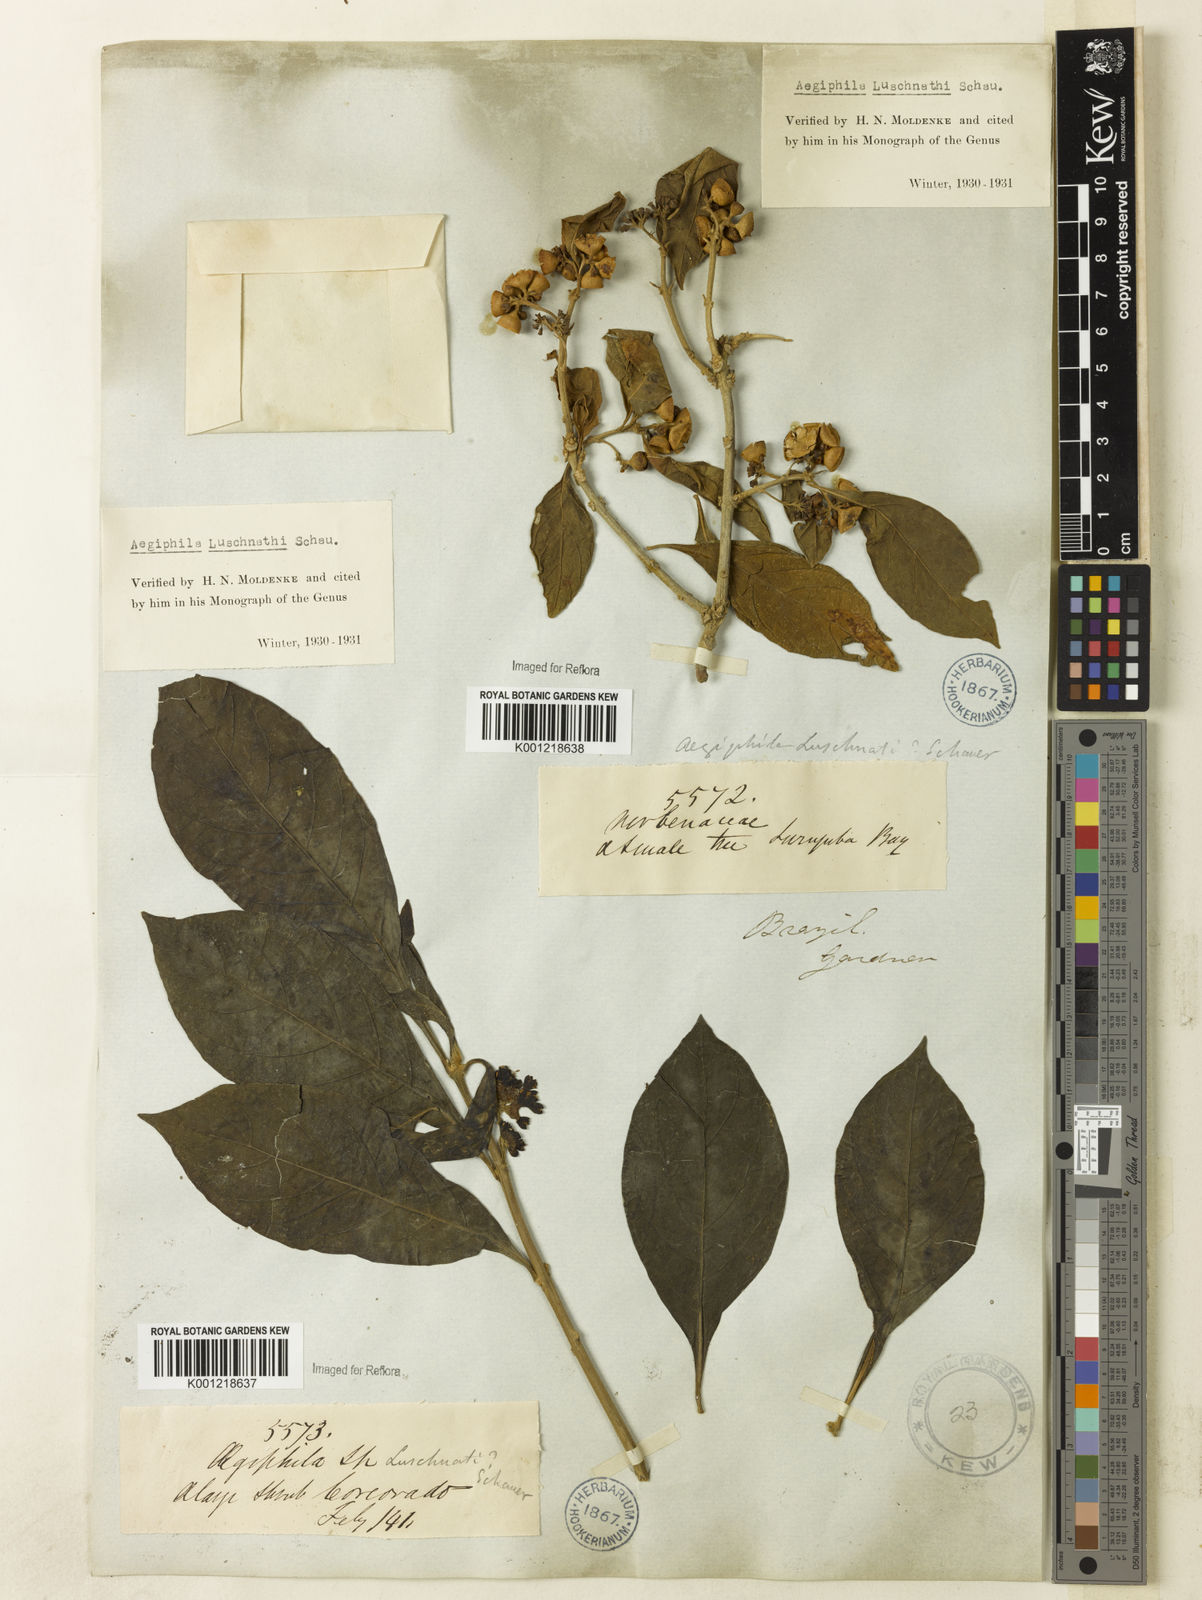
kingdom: Plantae
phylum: Tracheophyta
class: Magnoliopsida
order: Lamiales
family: Lamiaceae
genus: Aegiphila
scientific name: Aegiphila luschnathii
